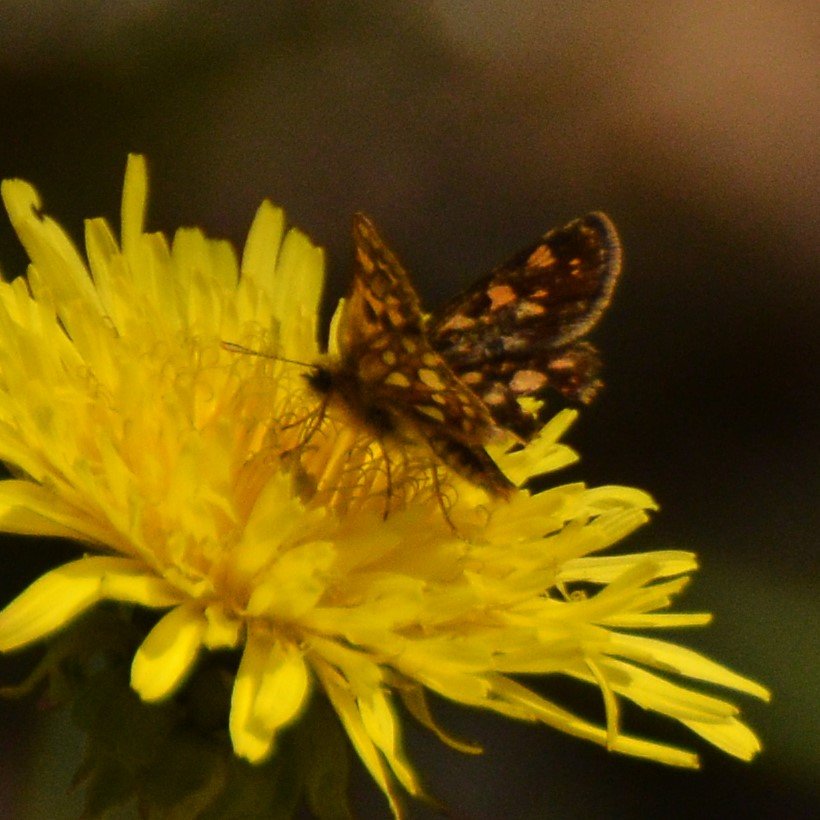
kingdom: Animalia
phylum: Arthropoda
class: Insecta
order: Lepidoptera
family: Hesperiidae
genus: Carterocephalus
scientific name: Carterocephalus palaemon
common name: Chequered Skipper
